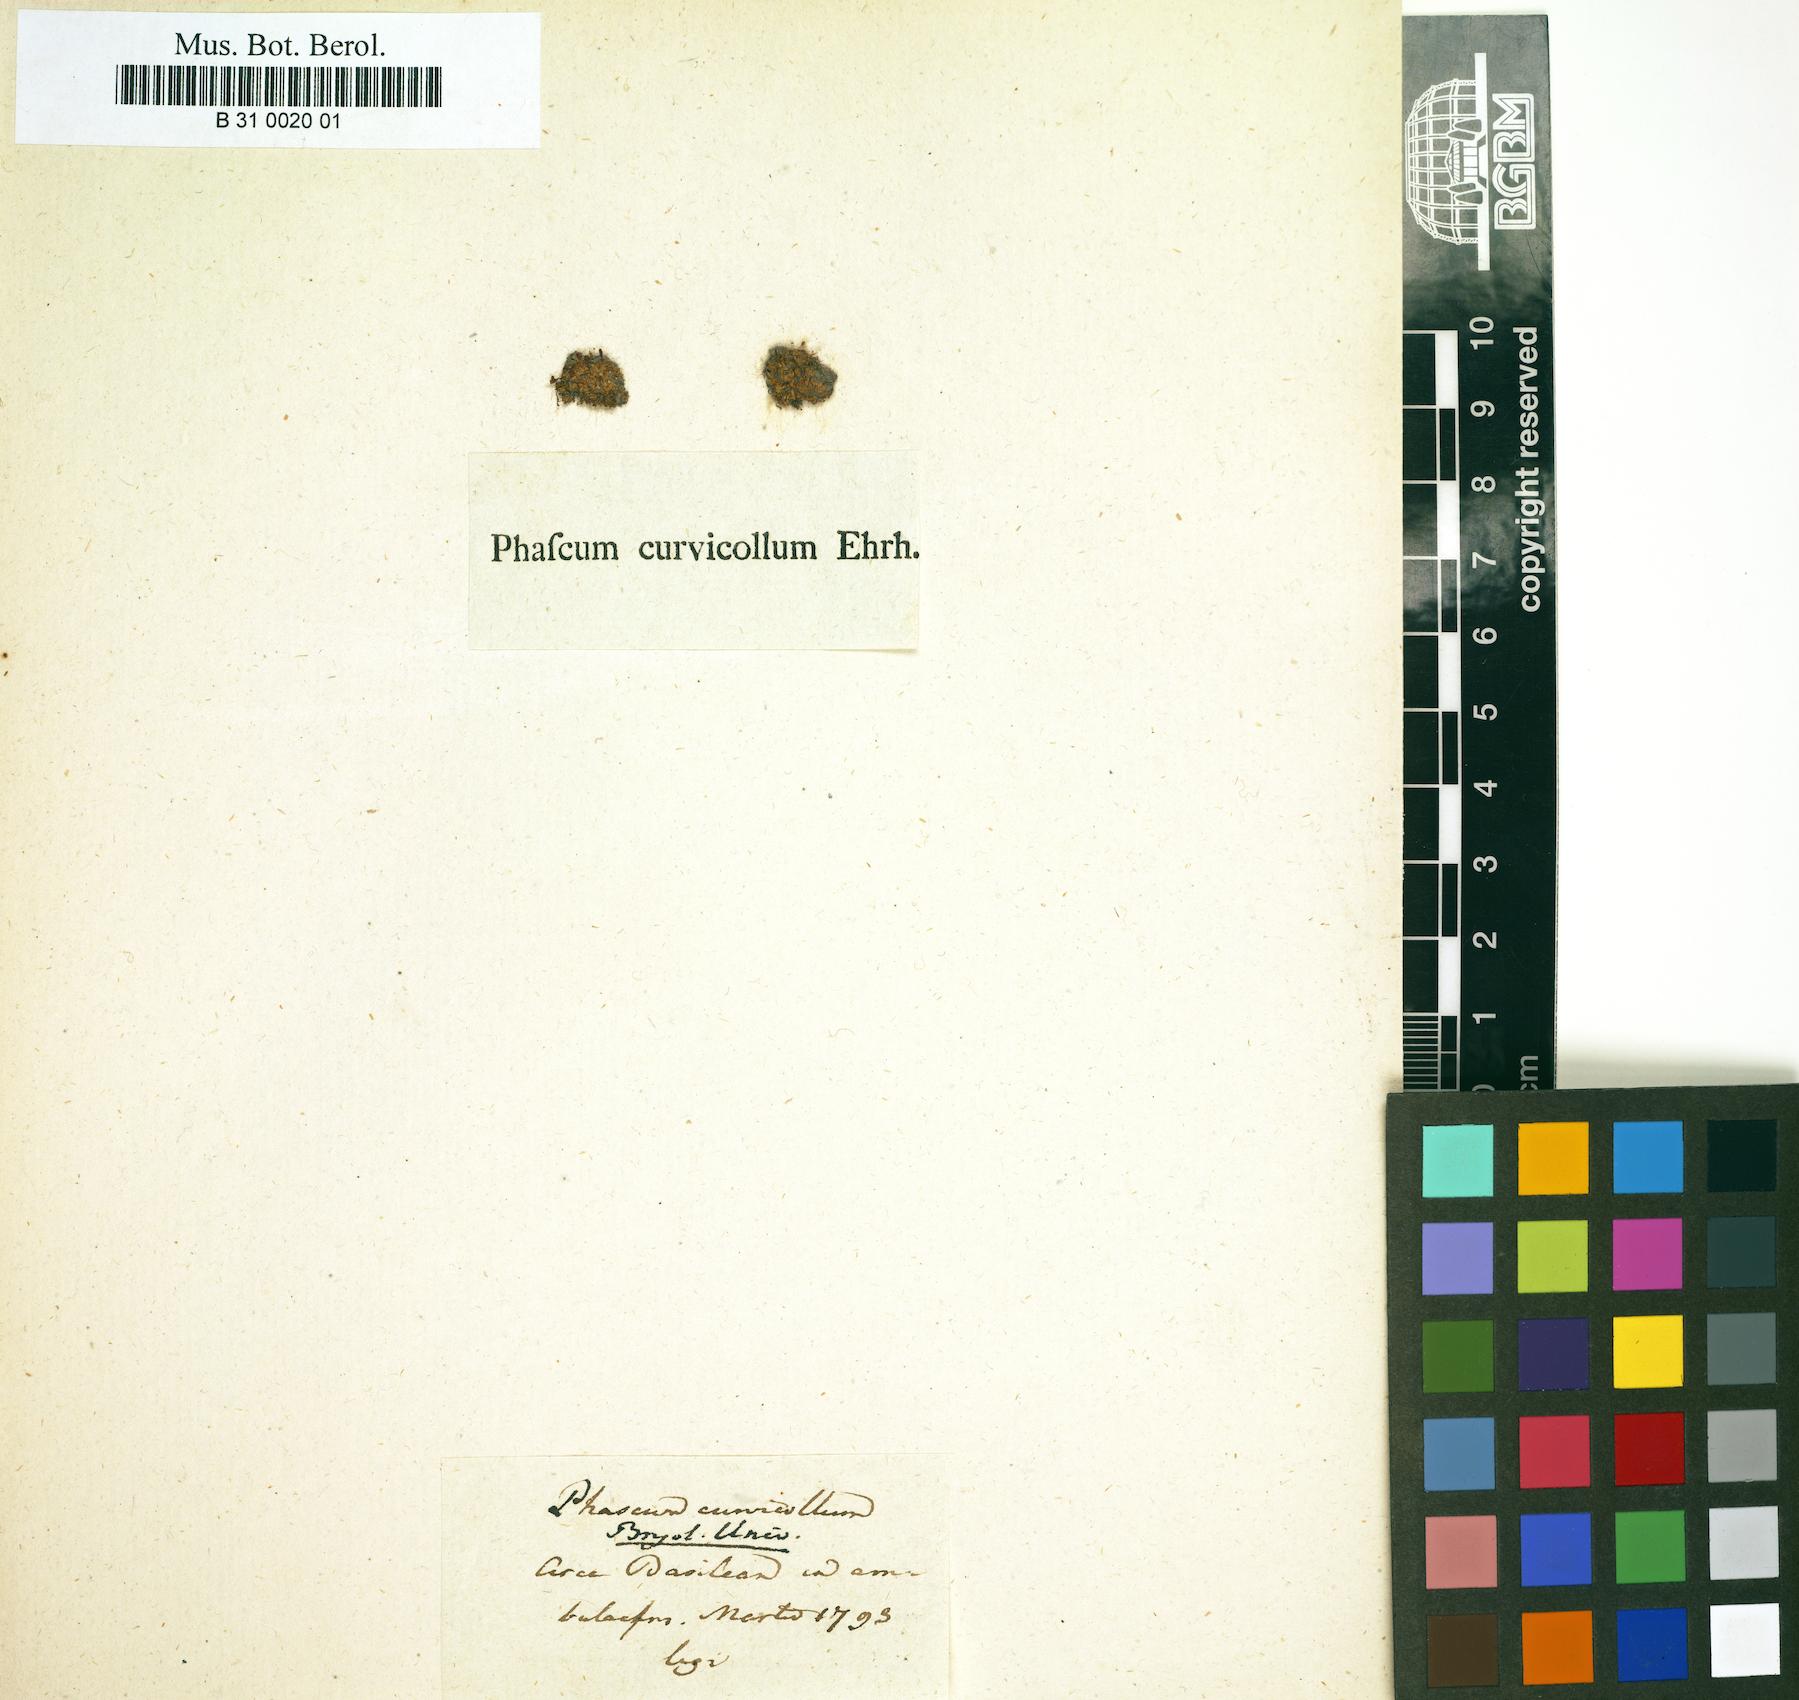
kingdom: Plantae
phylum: Bryophyta
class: Bryopsida
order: Pottiales
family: Pottiaceae
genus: Microbryum
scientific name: Microbryum curvicollum
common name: Swan-necked earth-moss
